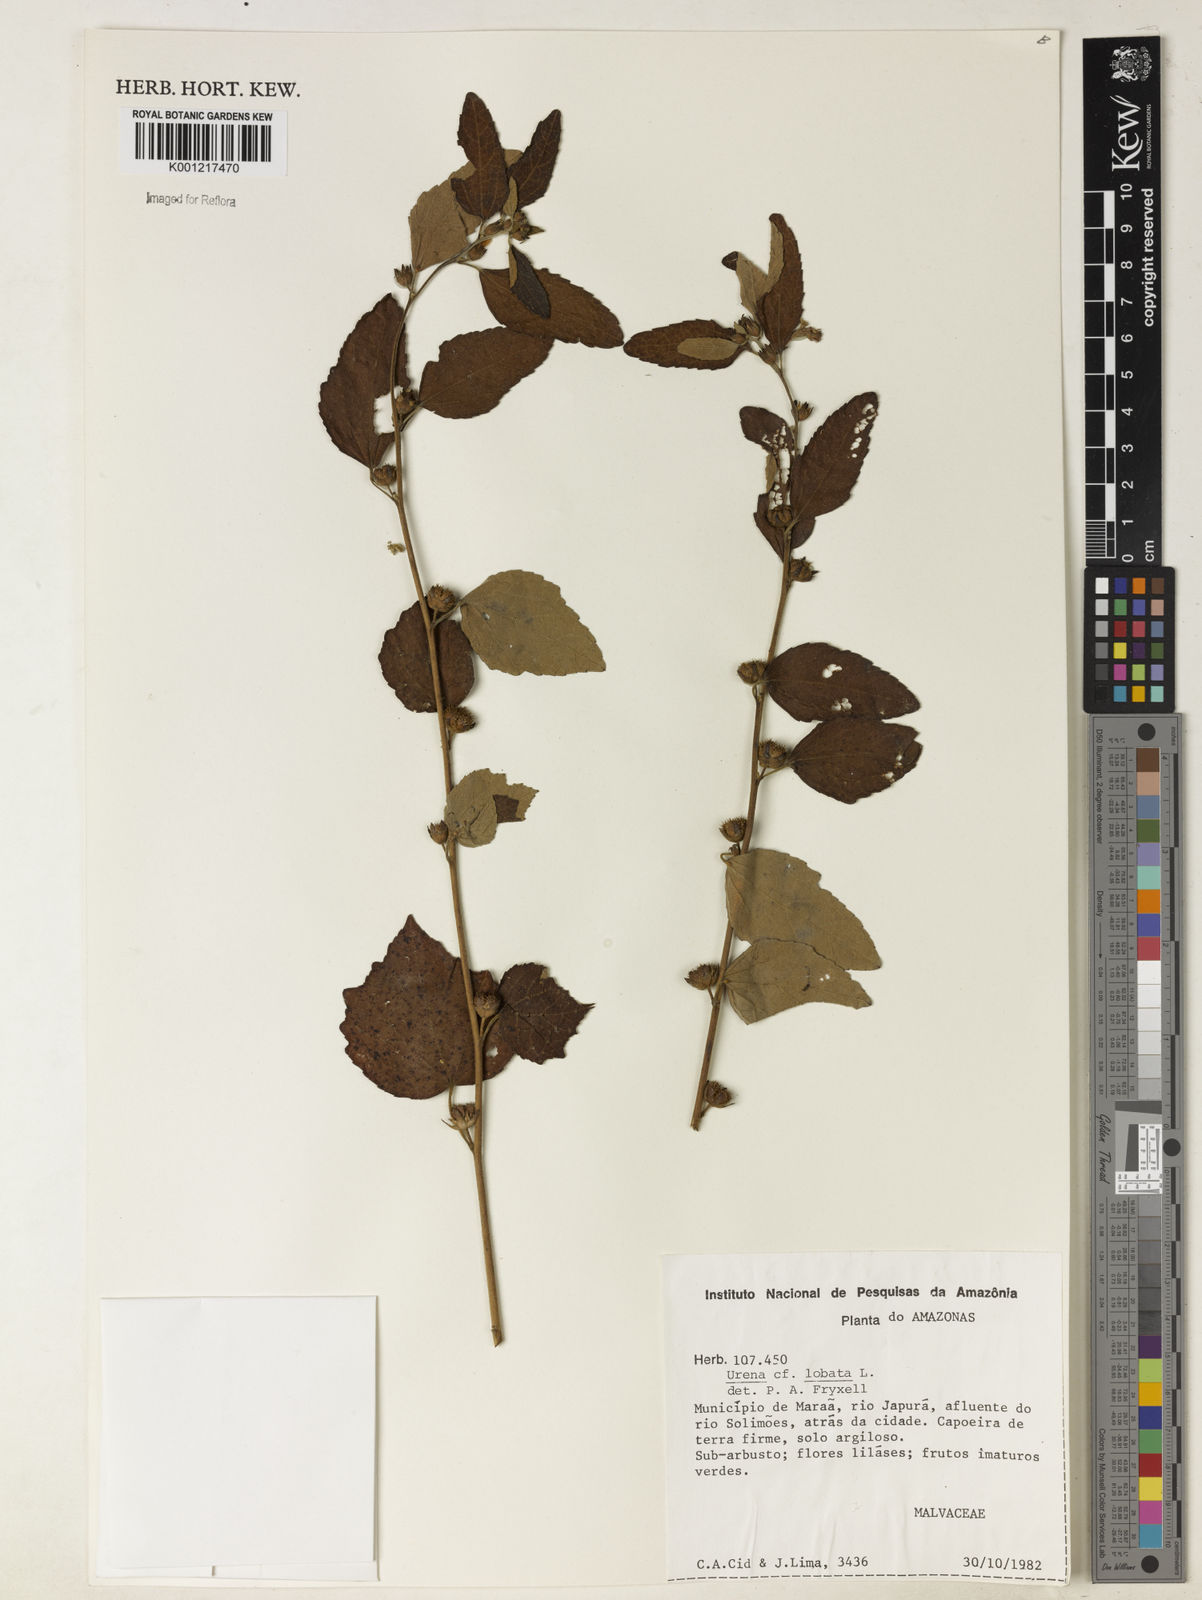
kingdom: Plantae
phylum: Tracheophyta
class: Magnoliopsida
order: Malvales
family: Malvaceae
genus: Urena
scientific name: Urena lobata
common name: Caesarweed
